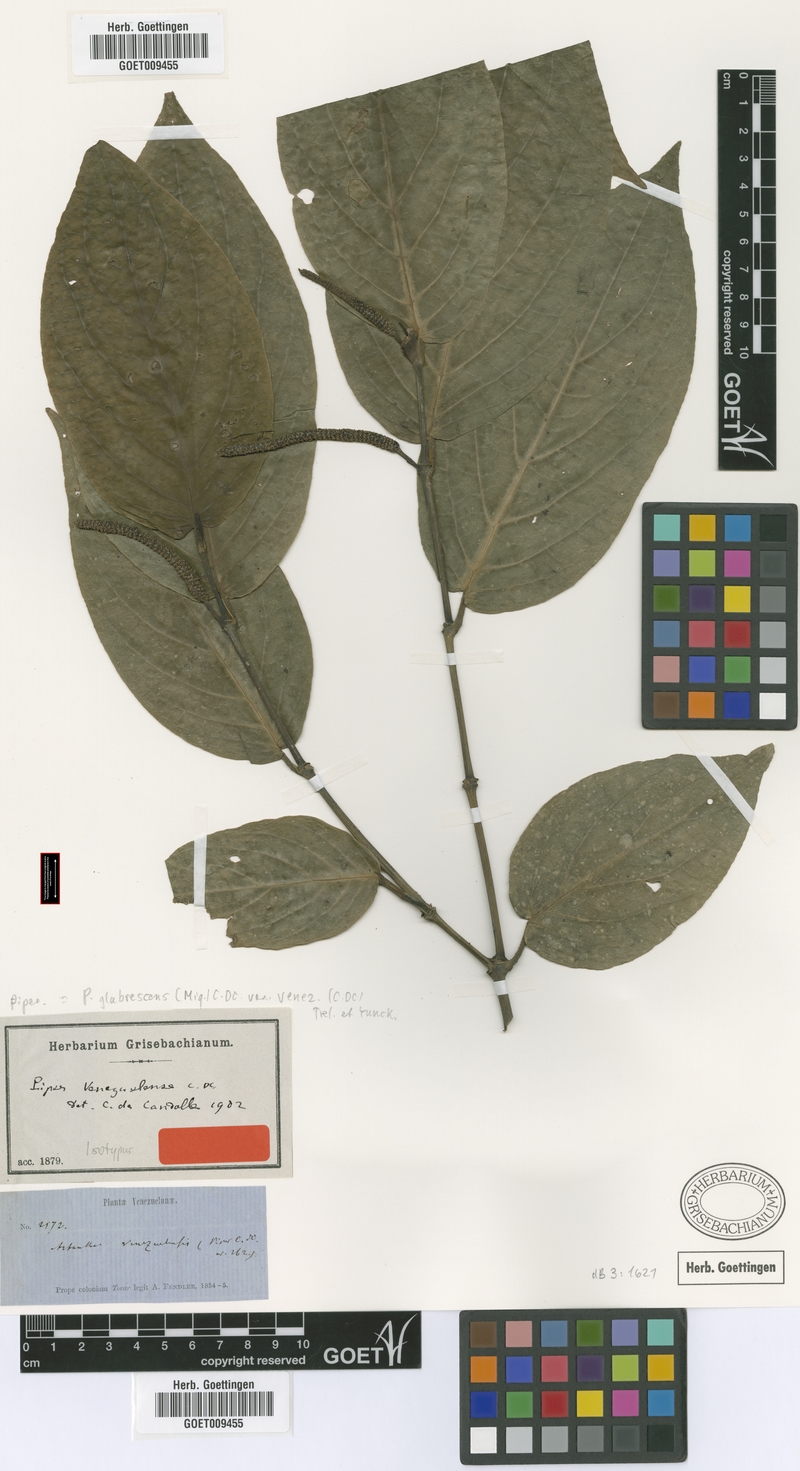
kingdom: Plantae
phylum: Tracheophyta
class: Magnoliopsida
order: Piperales
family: Piperaceae
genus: Piper
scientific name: Piper glabrescens
